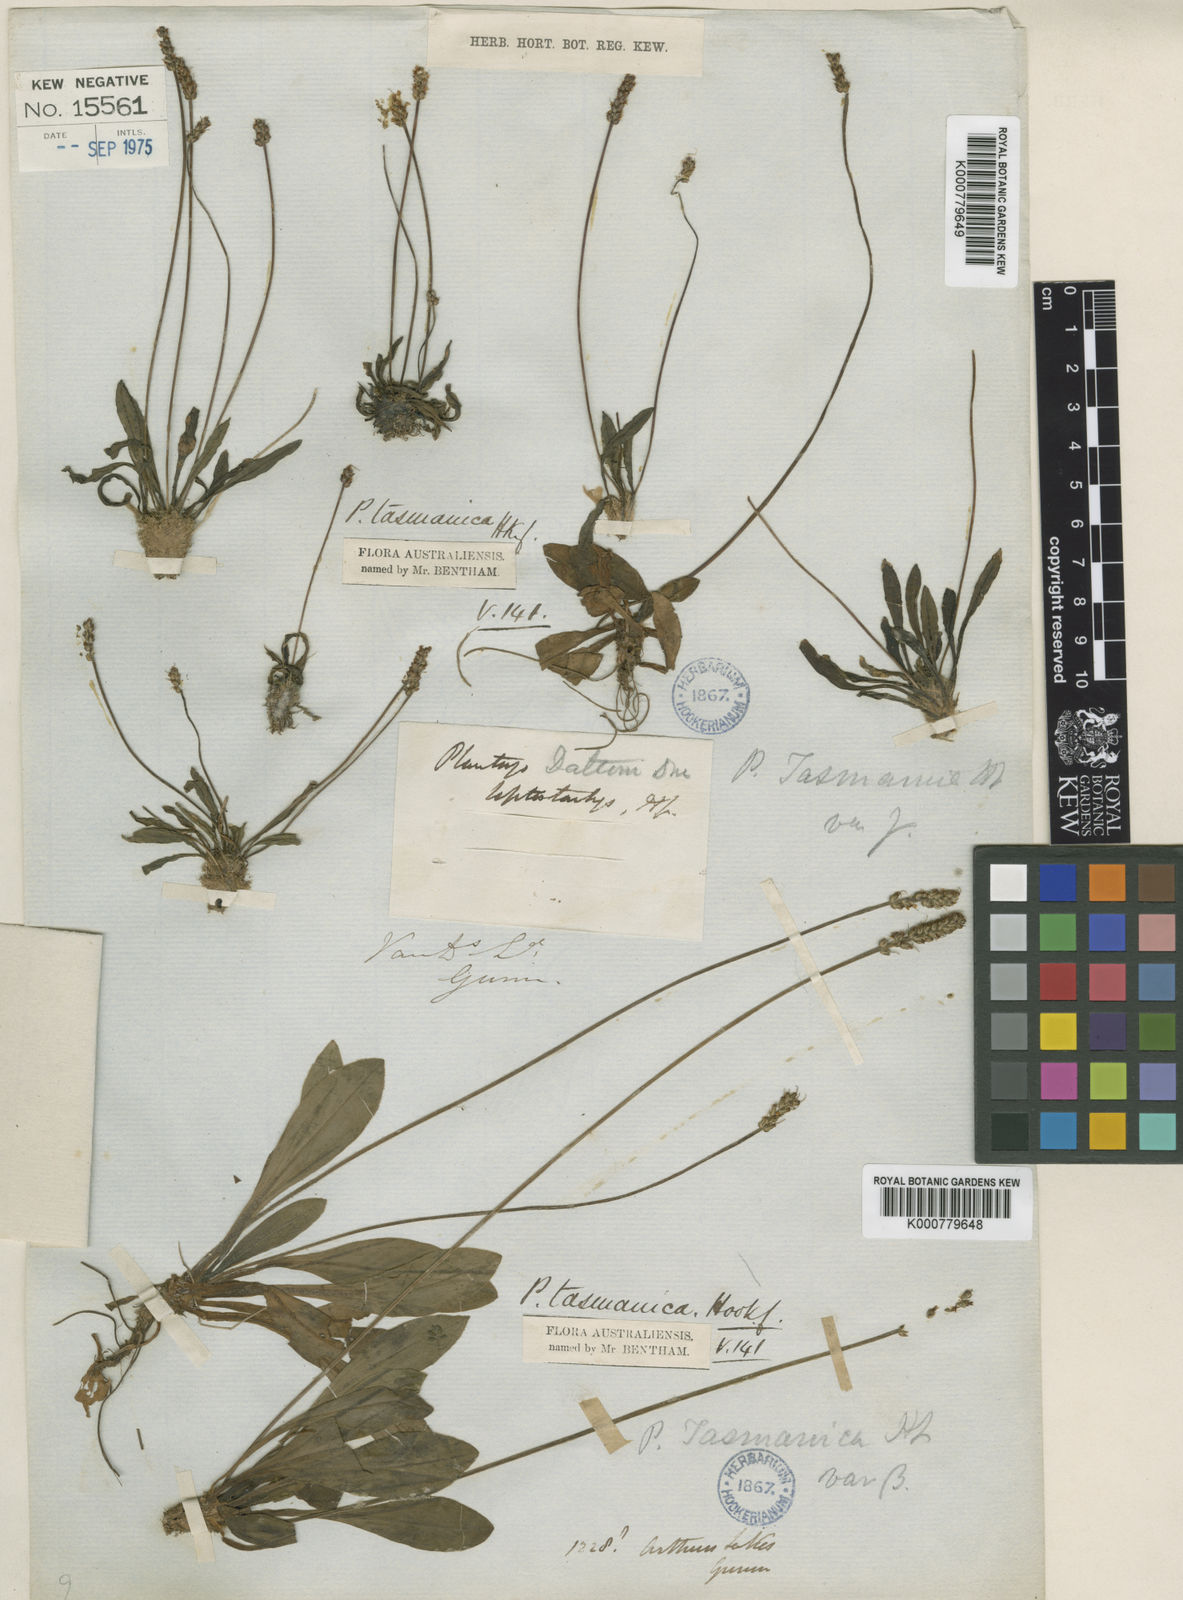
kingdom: Plantae
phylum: Tracheophyta
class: Magnoliopsida
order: Lamiales
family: Plantaginaceae
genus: Plantago
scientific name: Plantago tasmanica
